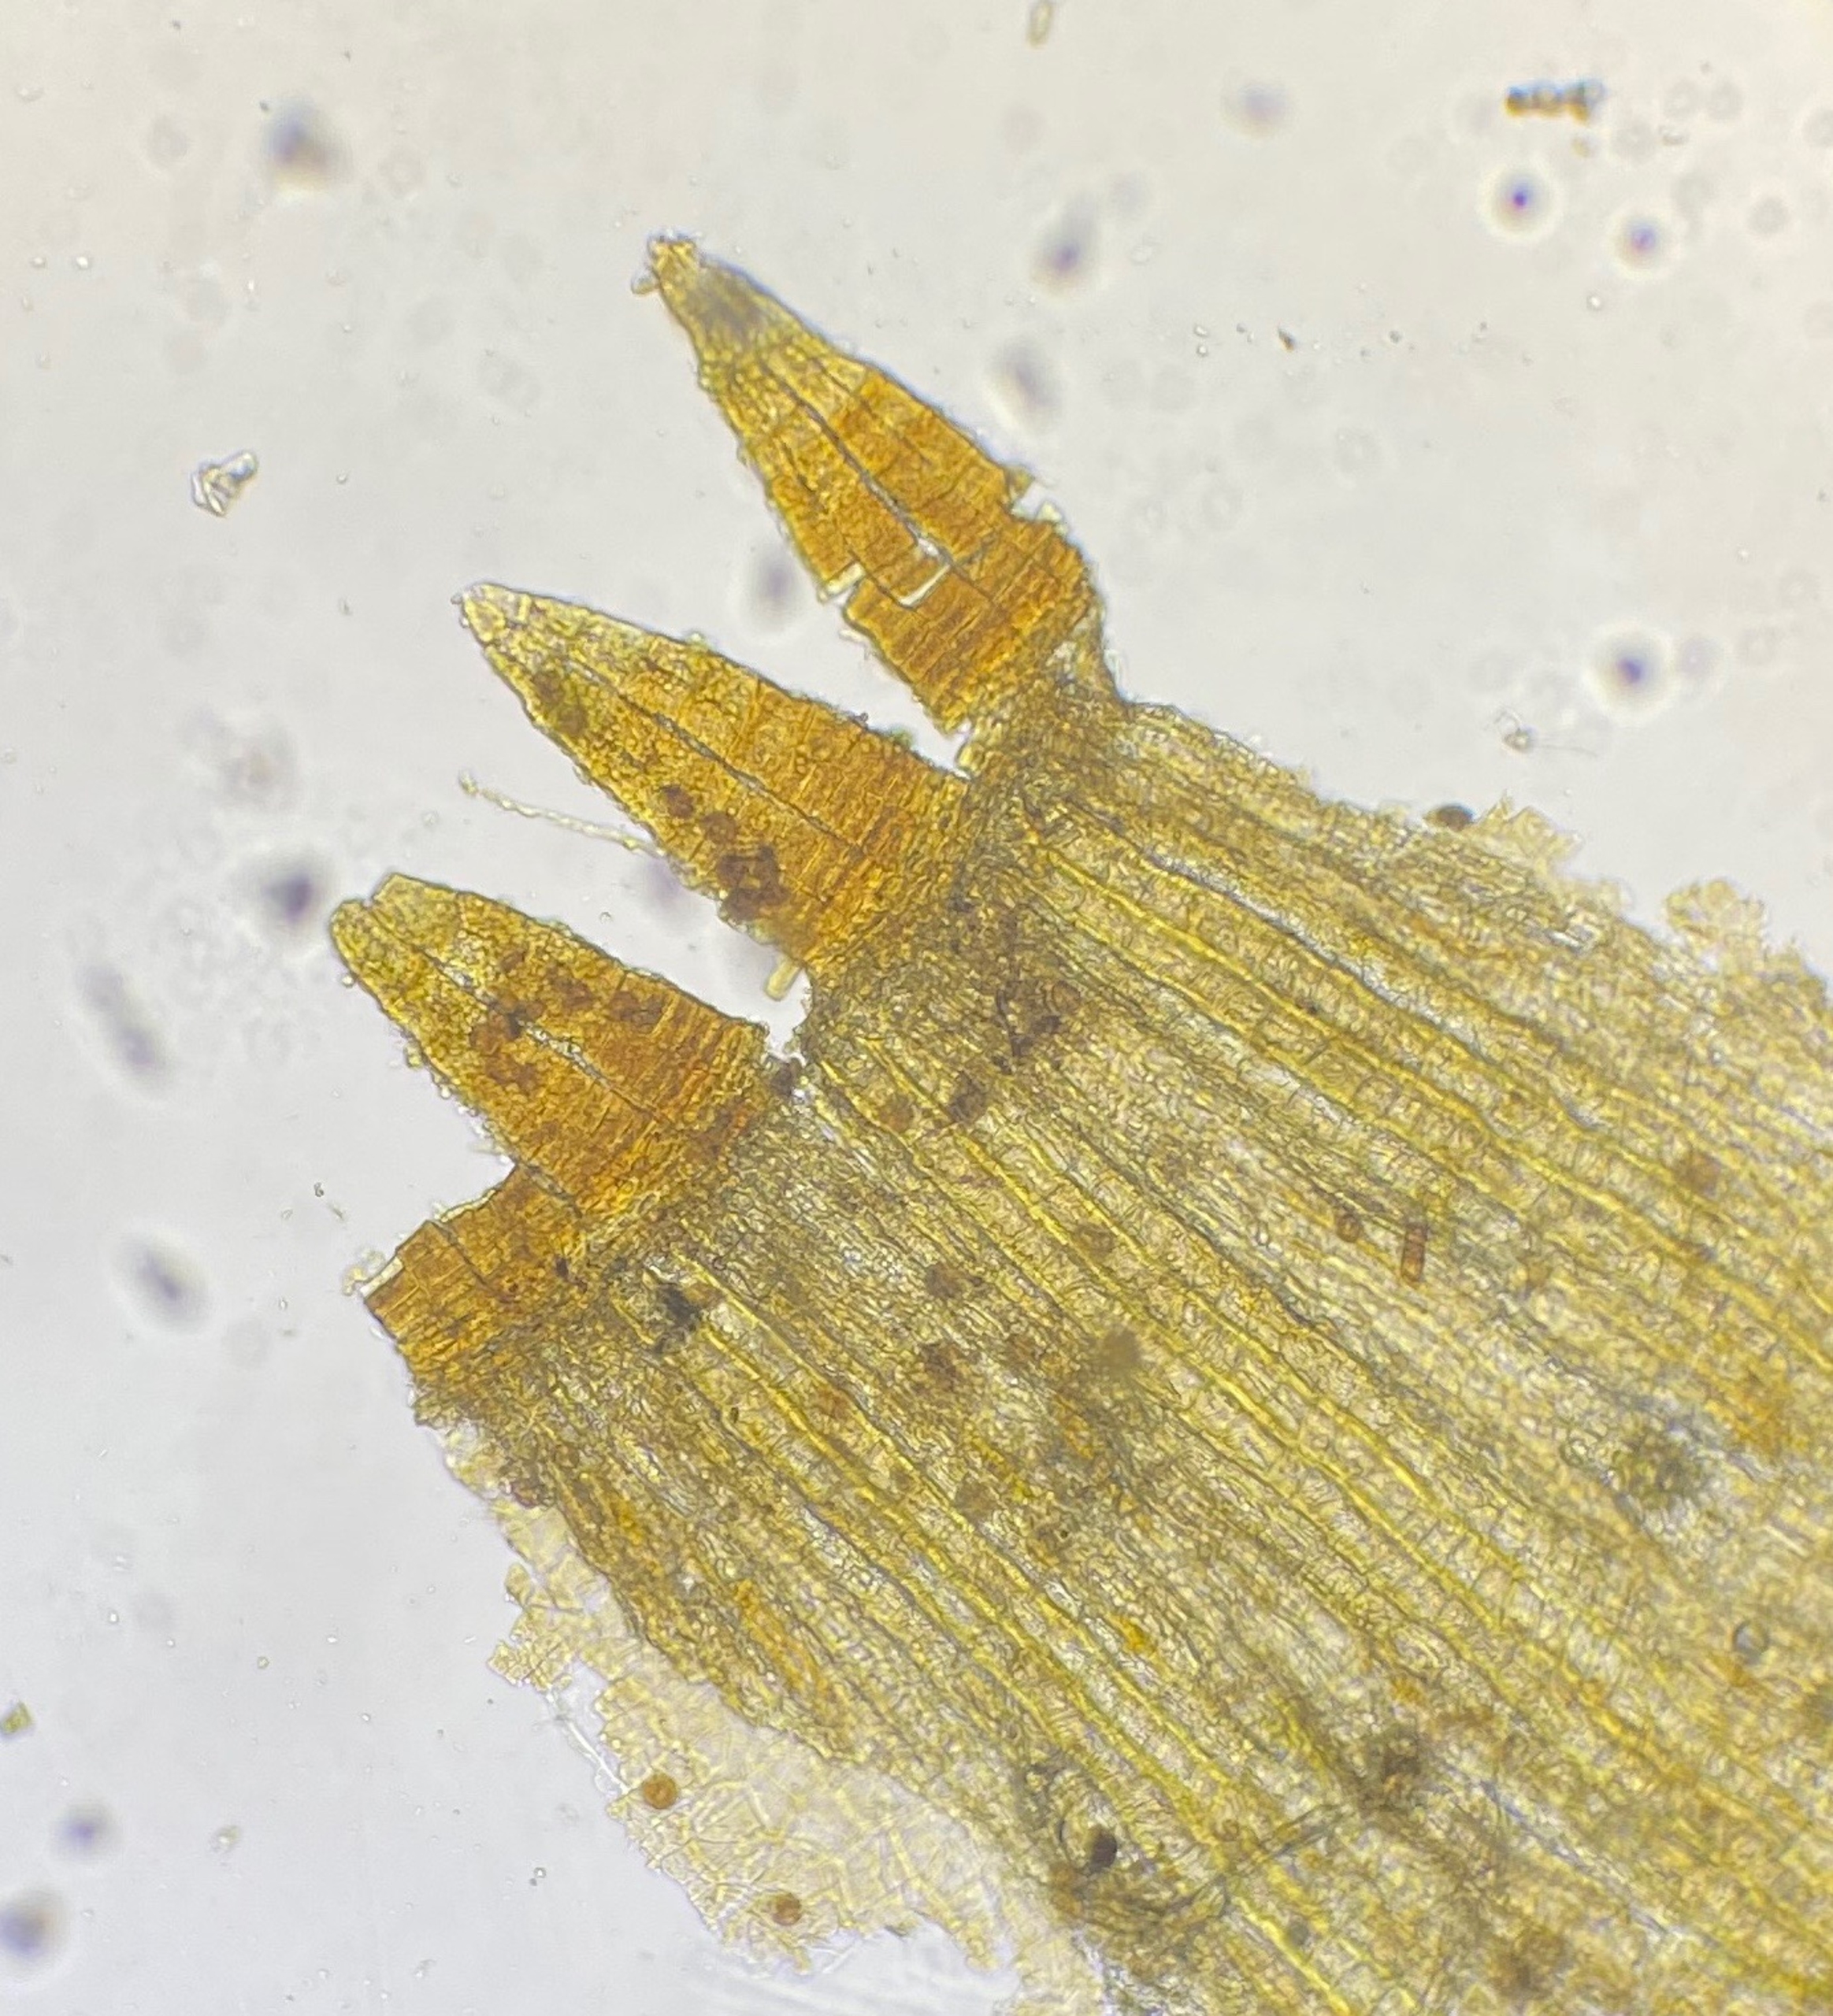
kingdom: Plantae
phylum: Bryophyta
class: Bryopsida
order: Orthotrichales
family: Orthotrichaceae
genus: Orthotrichum
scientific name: Orthotrichum pulchellum
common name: Smuk furehætte
